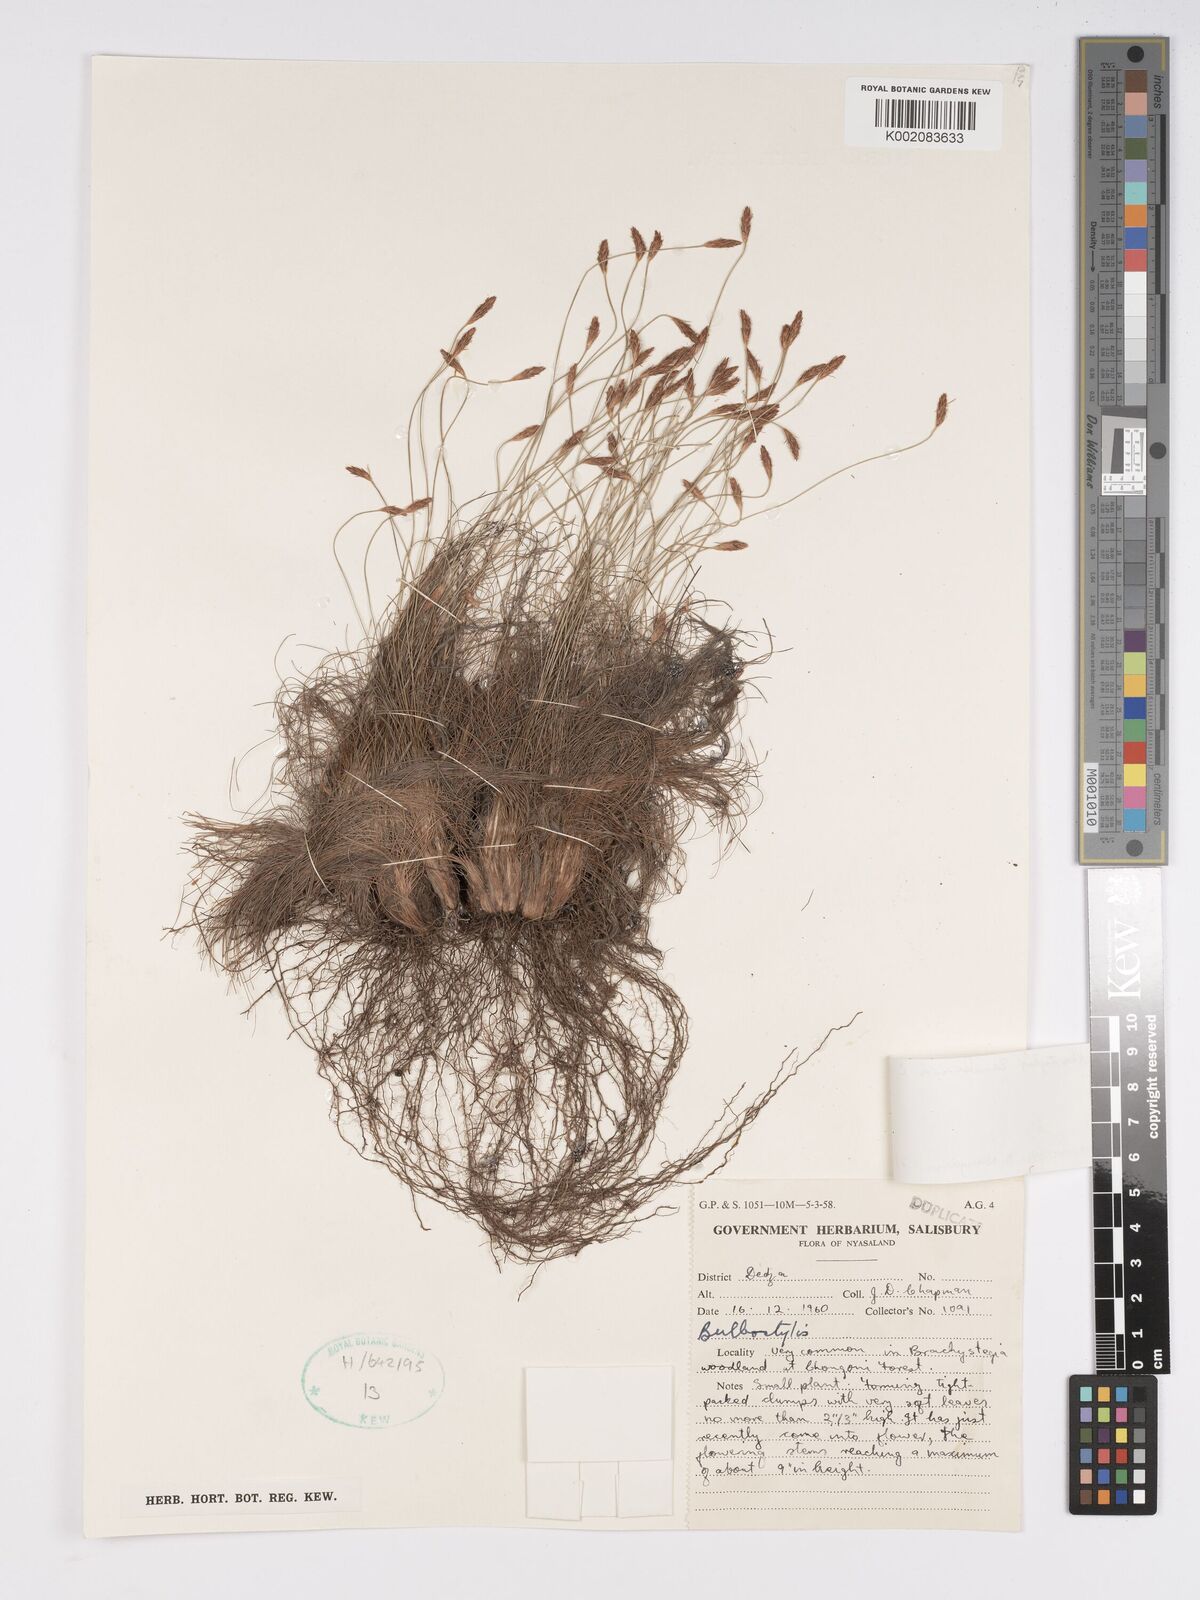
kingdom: Plantae
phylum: Tracheophyta
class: Liliopsida
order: Poales
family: Cyperaceae
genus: Bulbostylis
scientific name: Bulbostylis macra
